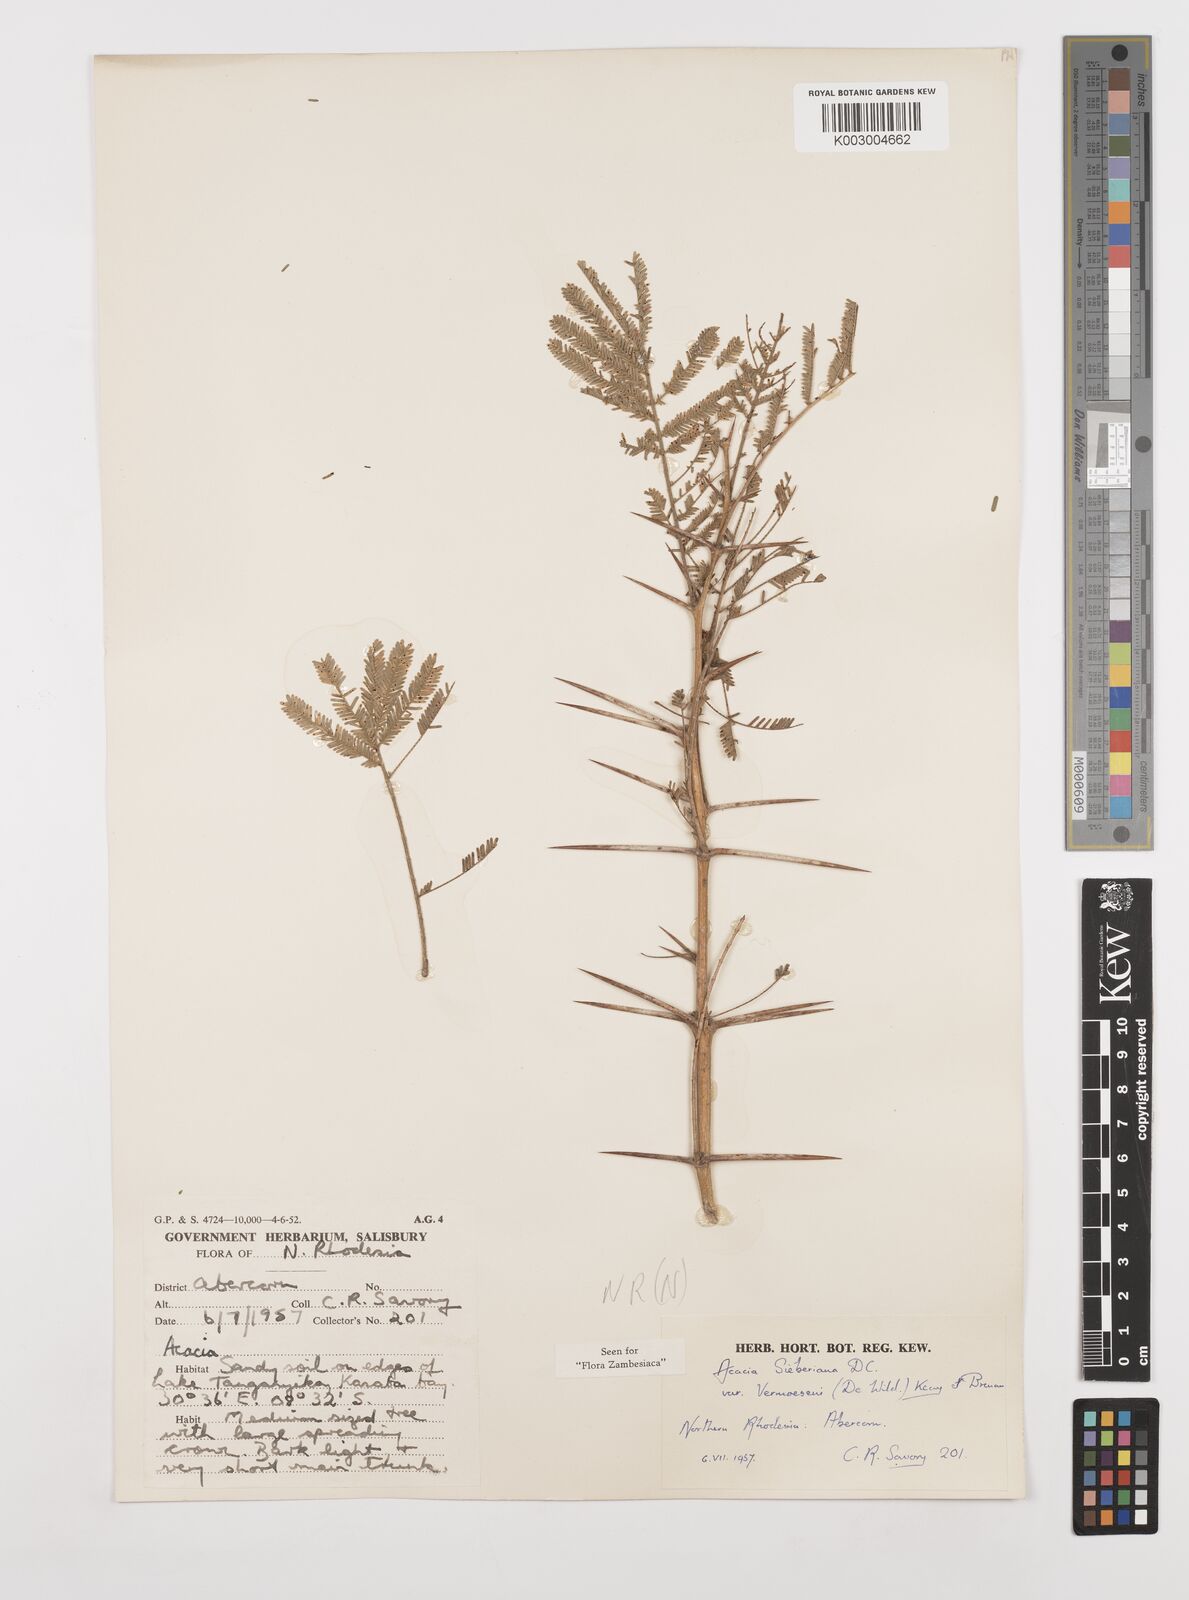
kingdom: Plantae
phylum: Tracheophyta
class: Magnoliopsida
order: Fabales
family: Fabaceae
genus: Vachellia
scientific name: Vachellia sieberiana
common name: Flat-topped thorn
